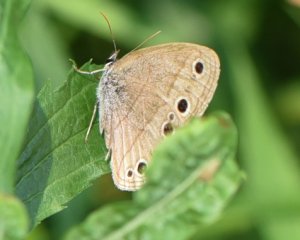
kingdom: Animalia
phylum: Arthropoda
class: Insecta
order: Lepidoptera
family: Nymphalidae
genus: Euptychia
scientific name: Euptychia cymela
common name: Little Wood Satyr
